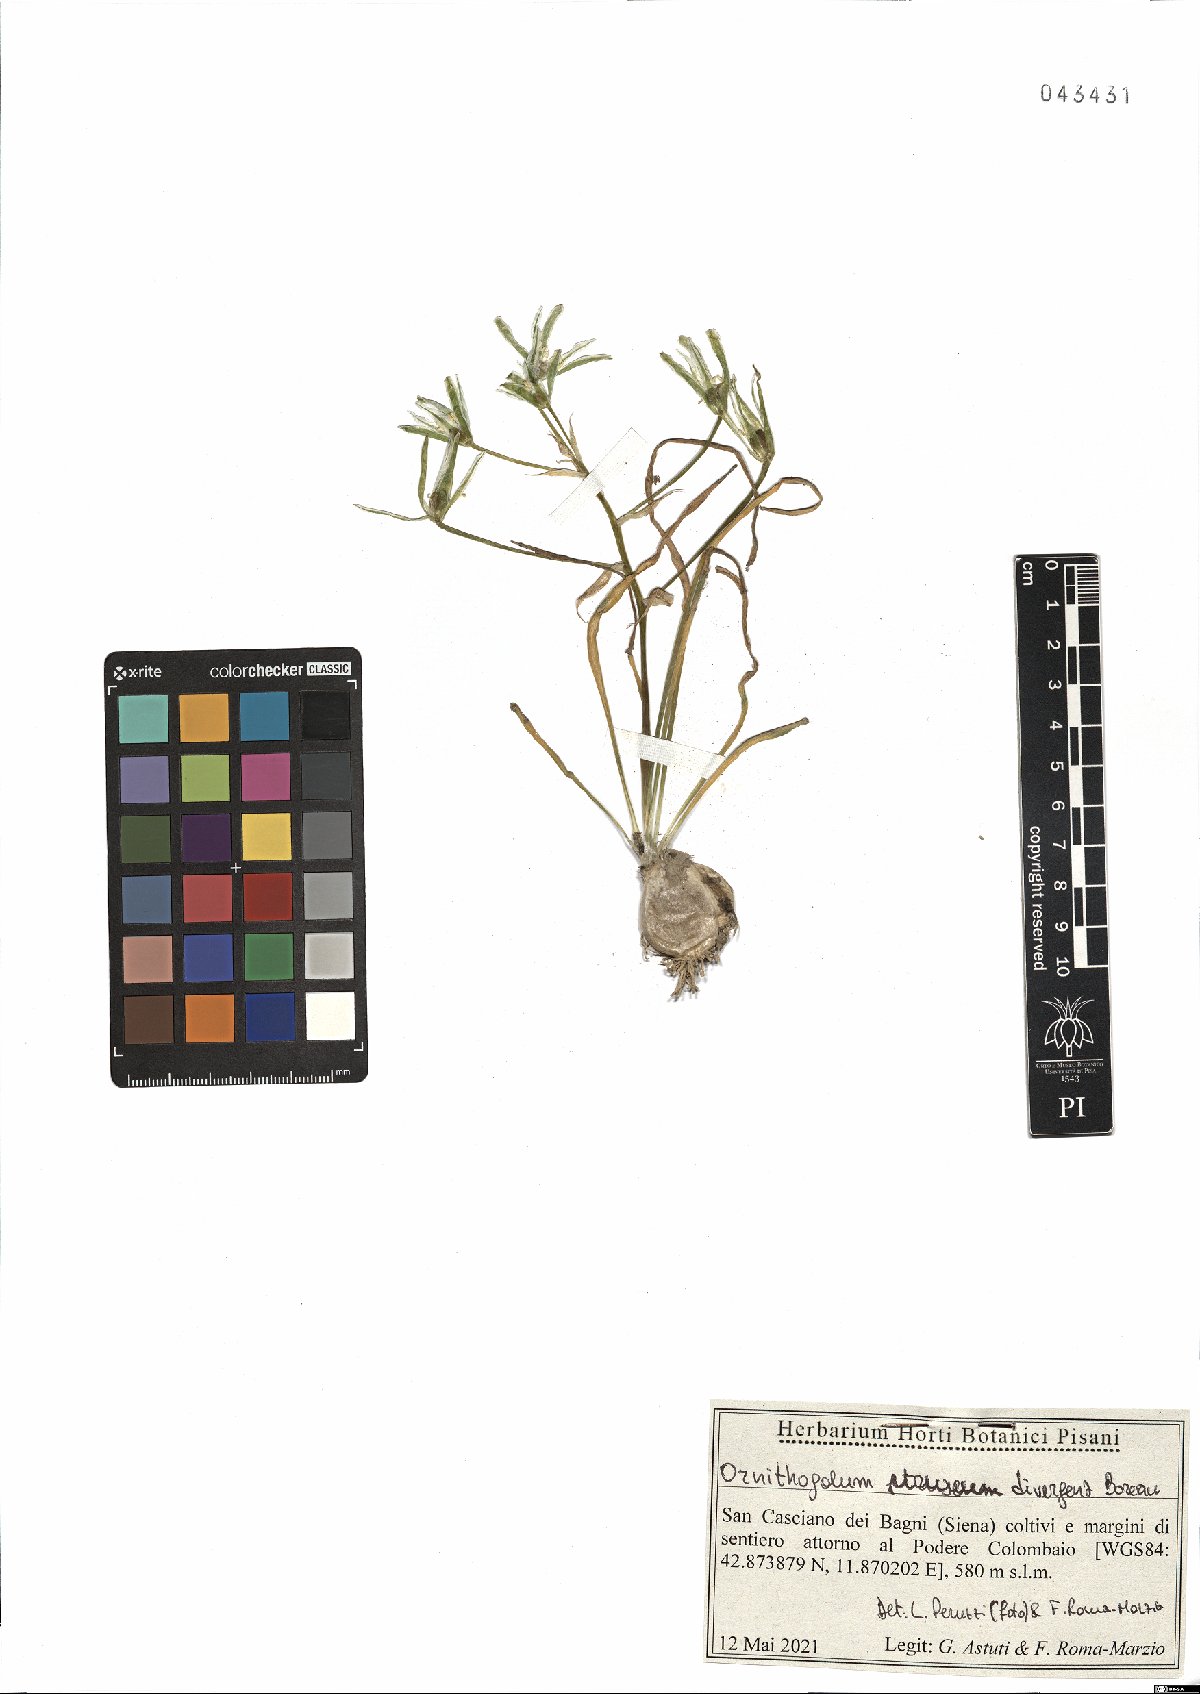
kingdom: Plantae
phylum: Tracheophyta
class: Liliopsida
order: Asparagales
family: Asparagaceae
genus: Ornithogalum
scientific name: Ornithogalum divergens
